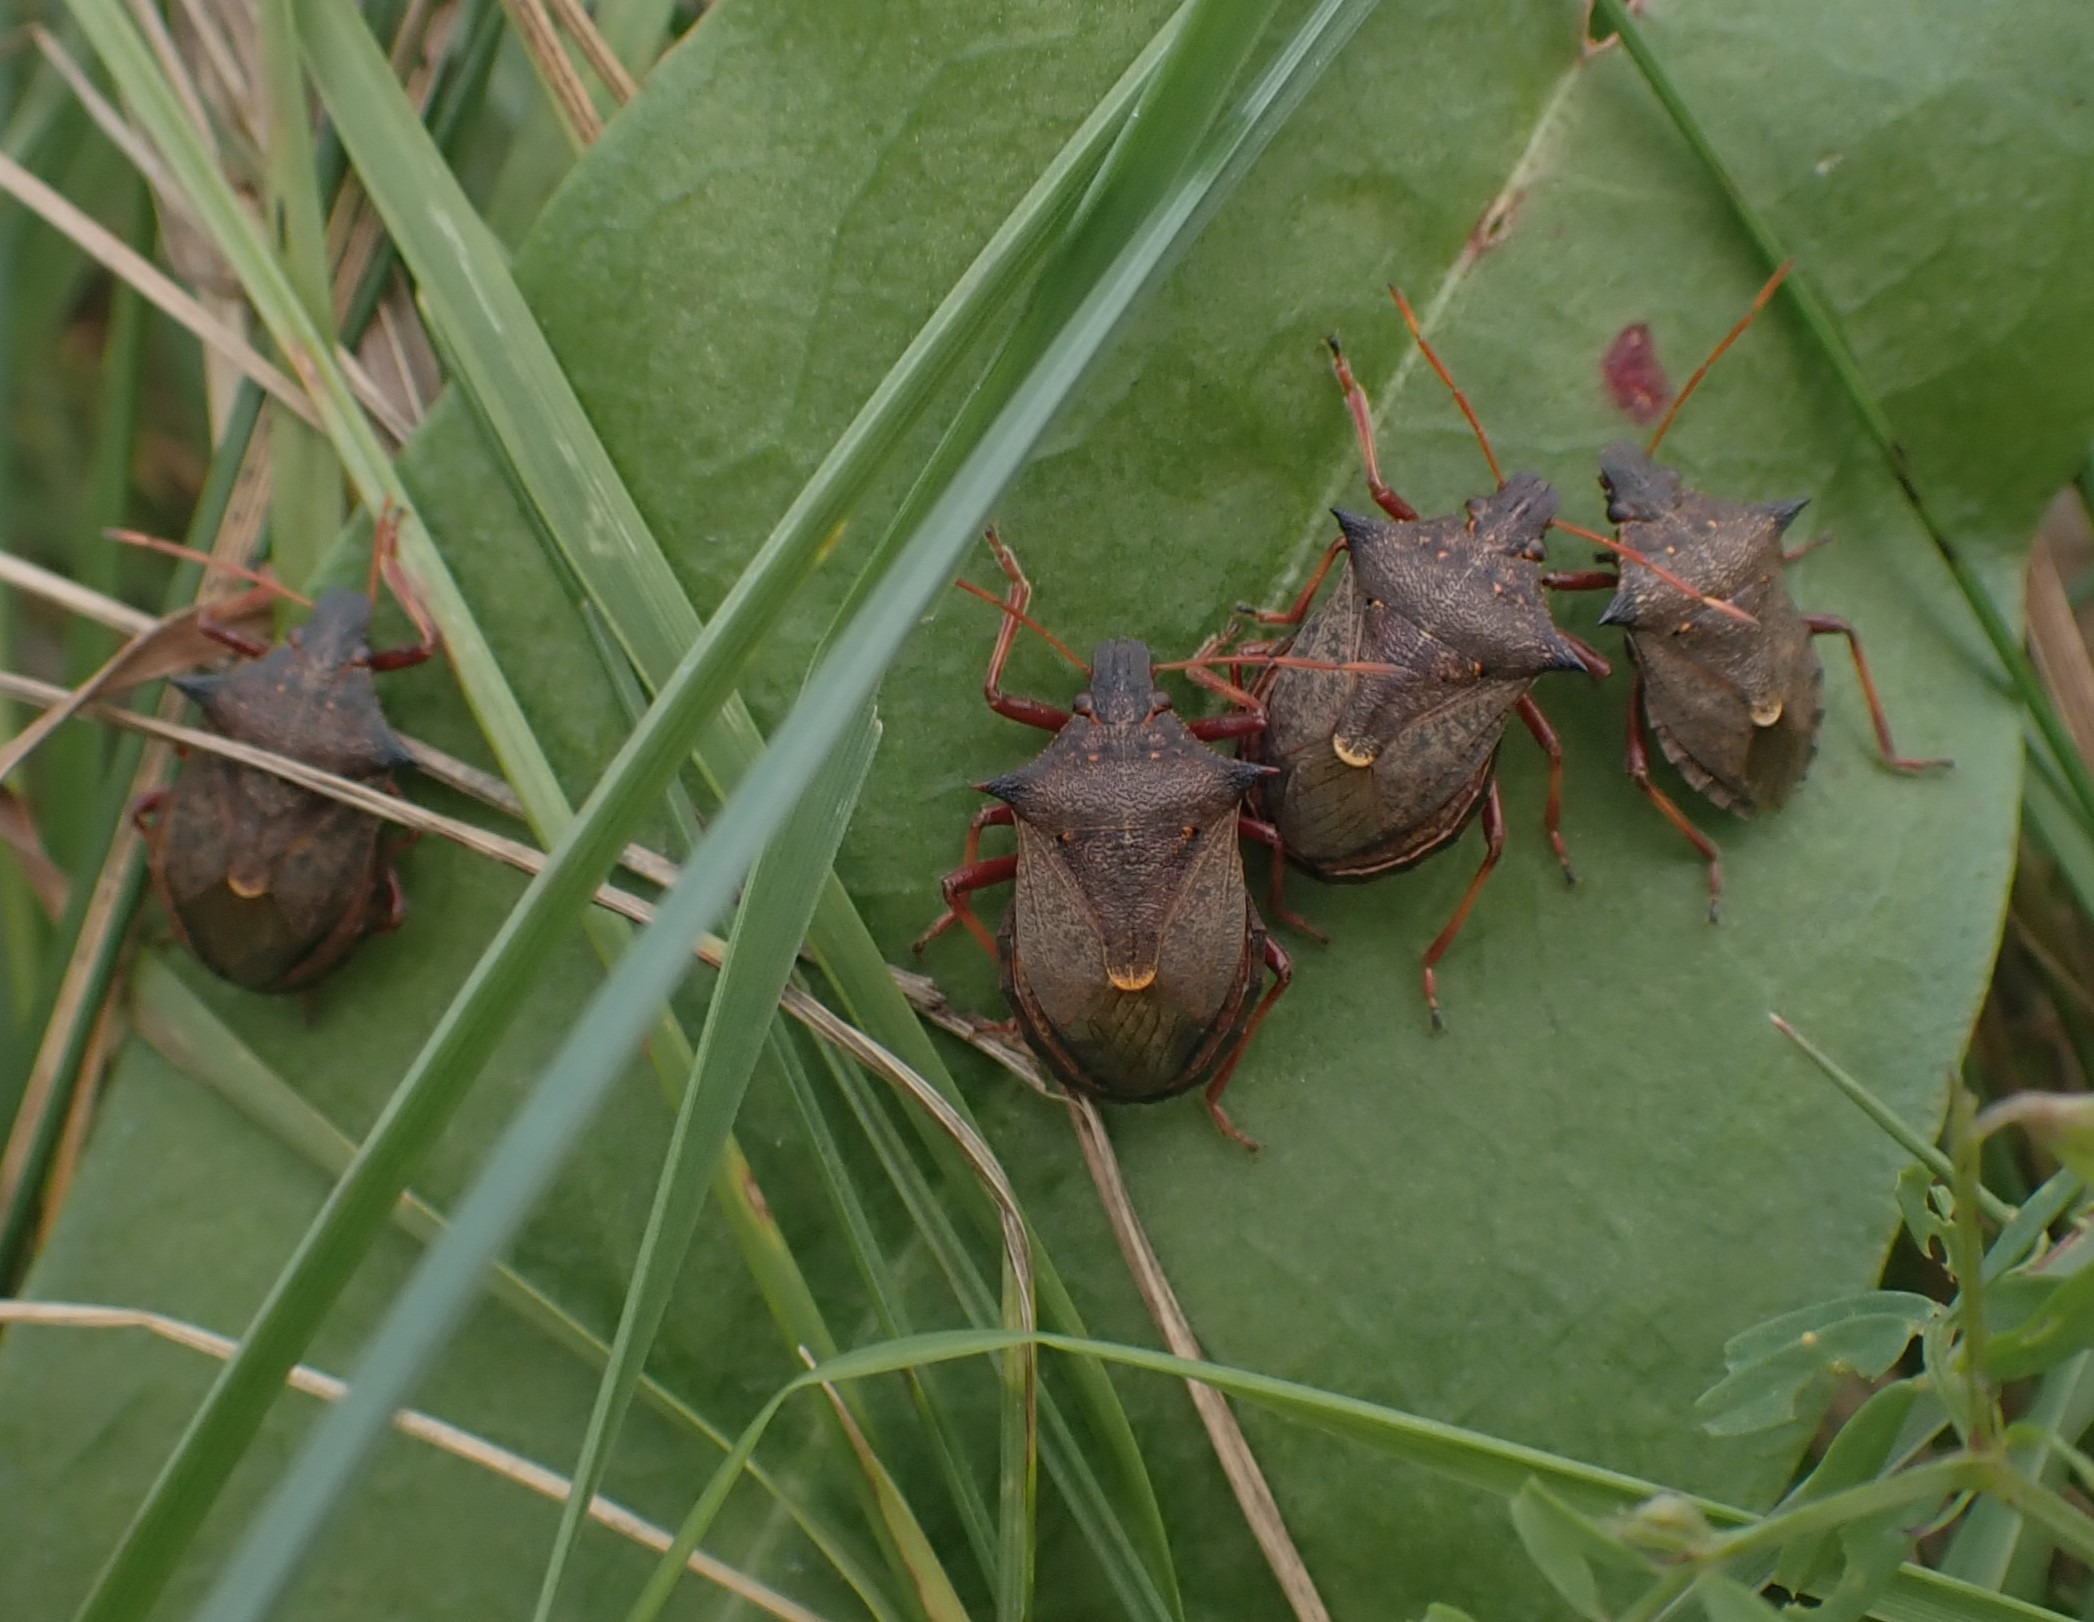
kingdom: Animalia
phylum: Arthropoda
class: Insecta
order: Hemiptera
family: Pentatomidae
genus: Picromerus
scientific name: Picromerus bidens
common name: Torntæge
